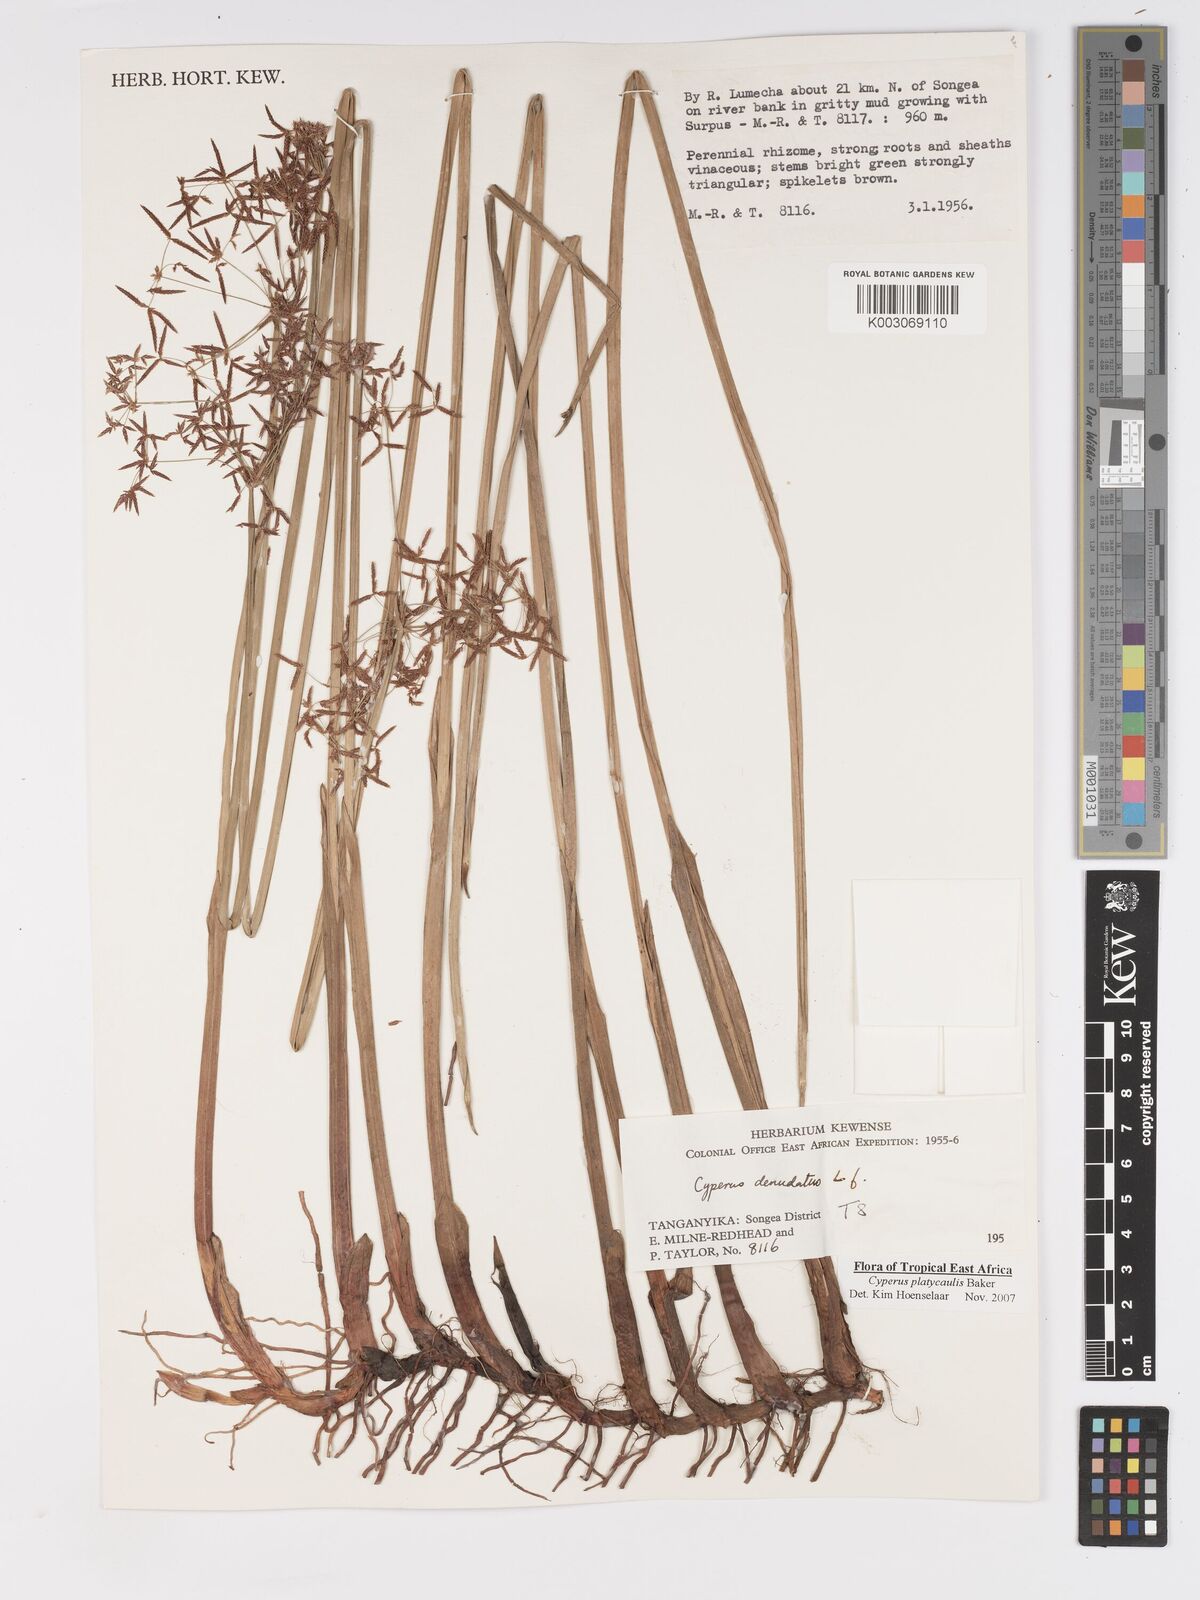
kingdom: Plantae
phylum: Tracheophyta
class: Liliopsida
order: Poales
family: Cyperaceae
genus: Cyperus
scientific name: Cyperus platycaulis
